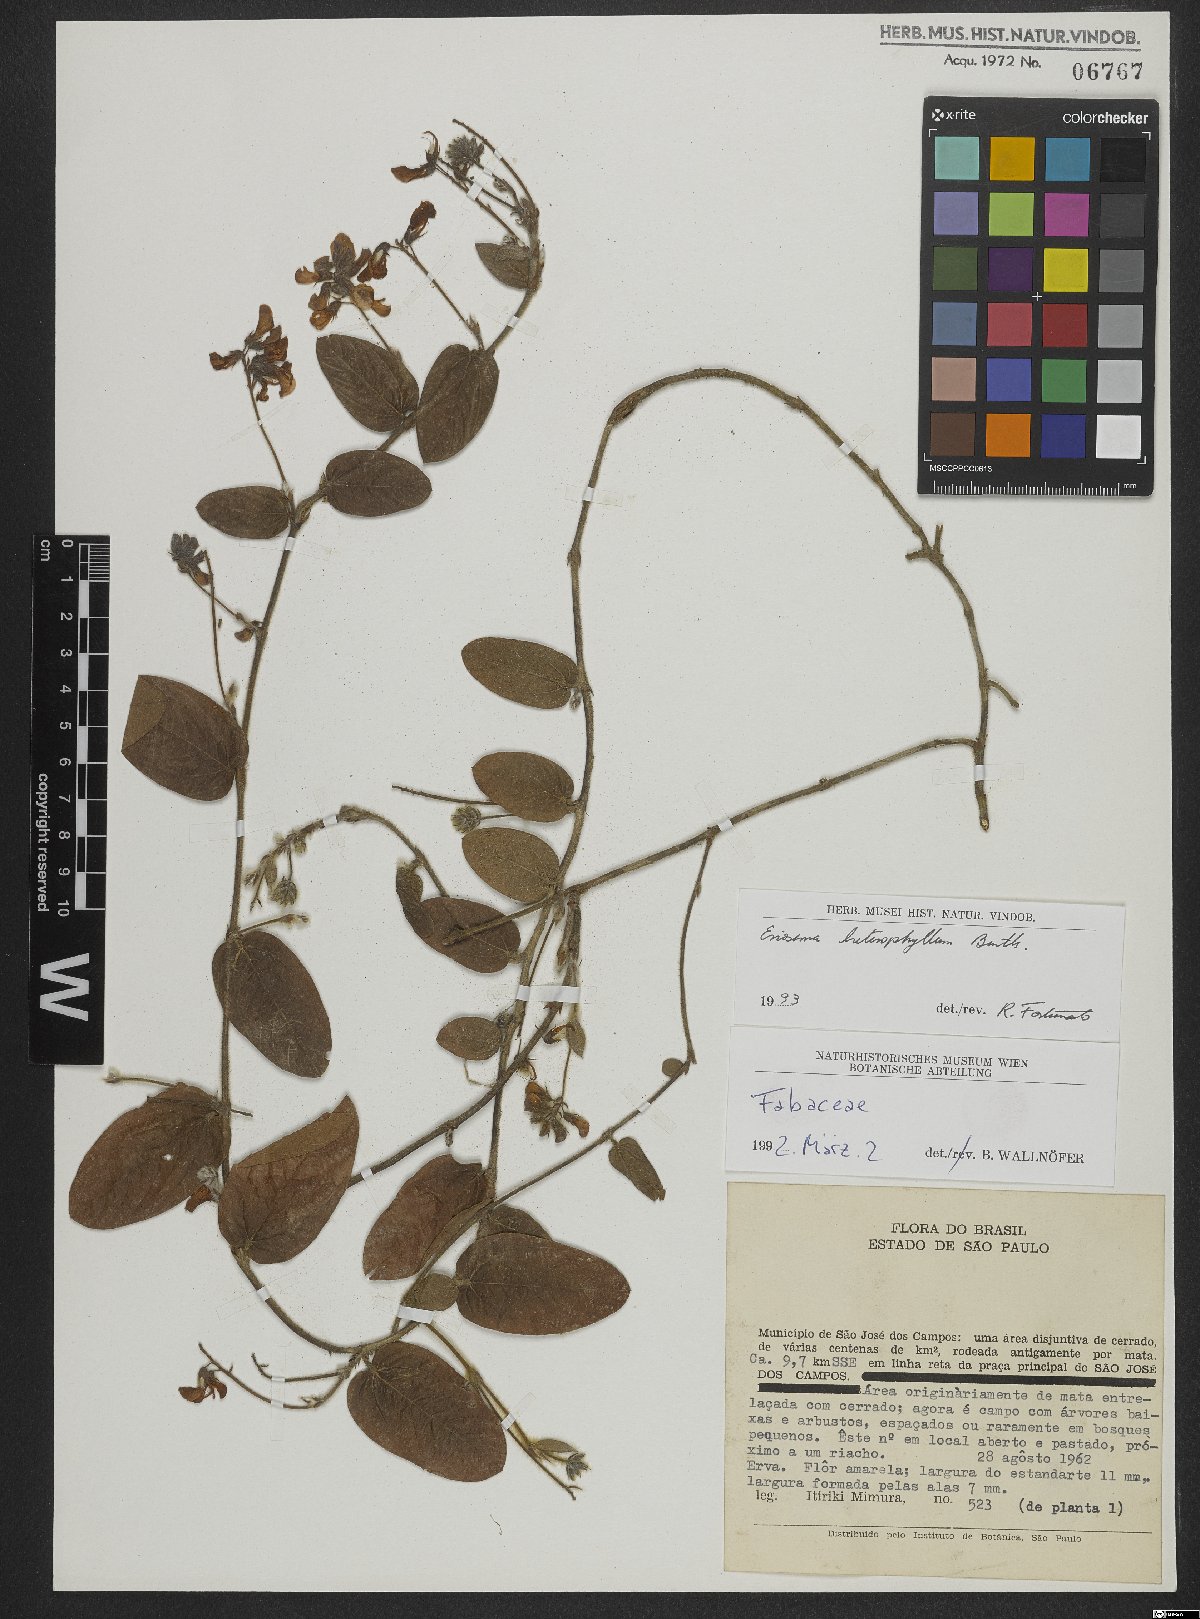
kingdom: Plantae
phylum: Tracheophyta
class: Magnoliopsida
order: Fabales
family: Fabaceae
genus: Eriosema
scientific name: Eriosema heterophyllum
